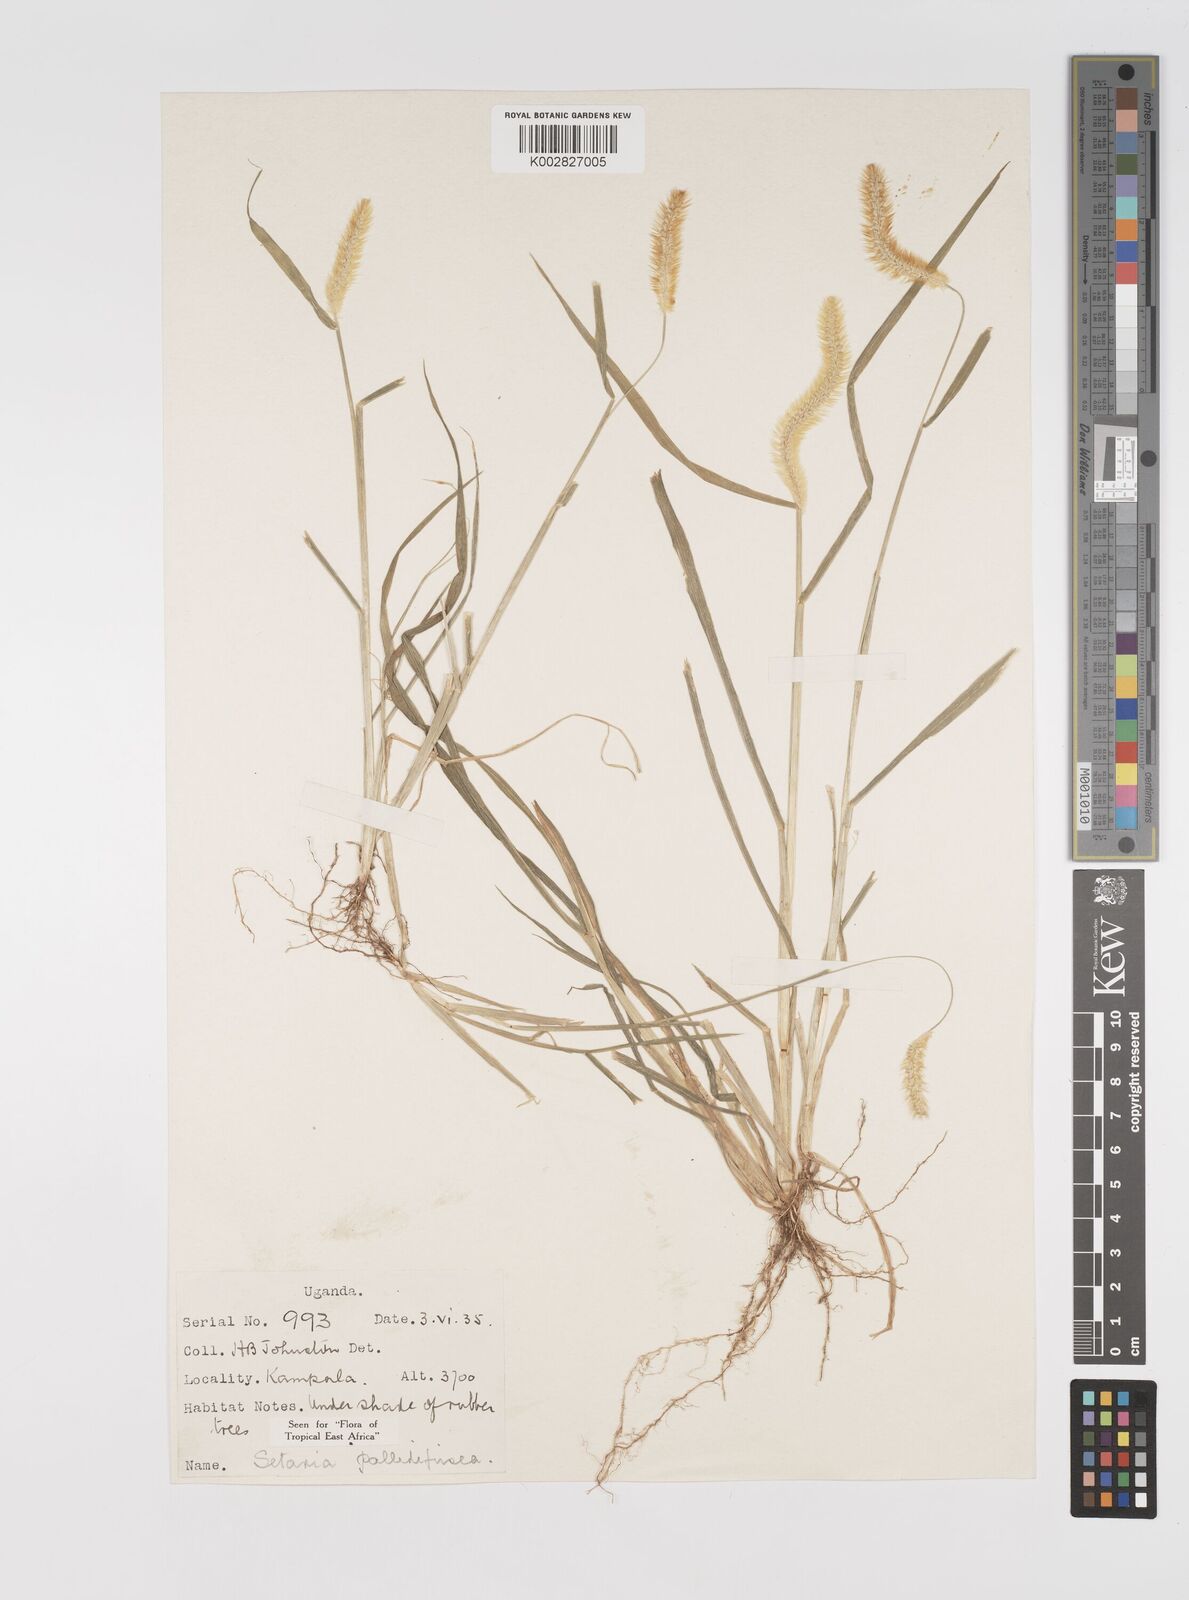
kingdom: Plantae
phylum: Tracheophyta
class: Liliopsida
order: Poales
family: Poaceae
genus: Setaria
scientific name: Setaria pumila
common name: Yellow bristle-grass
